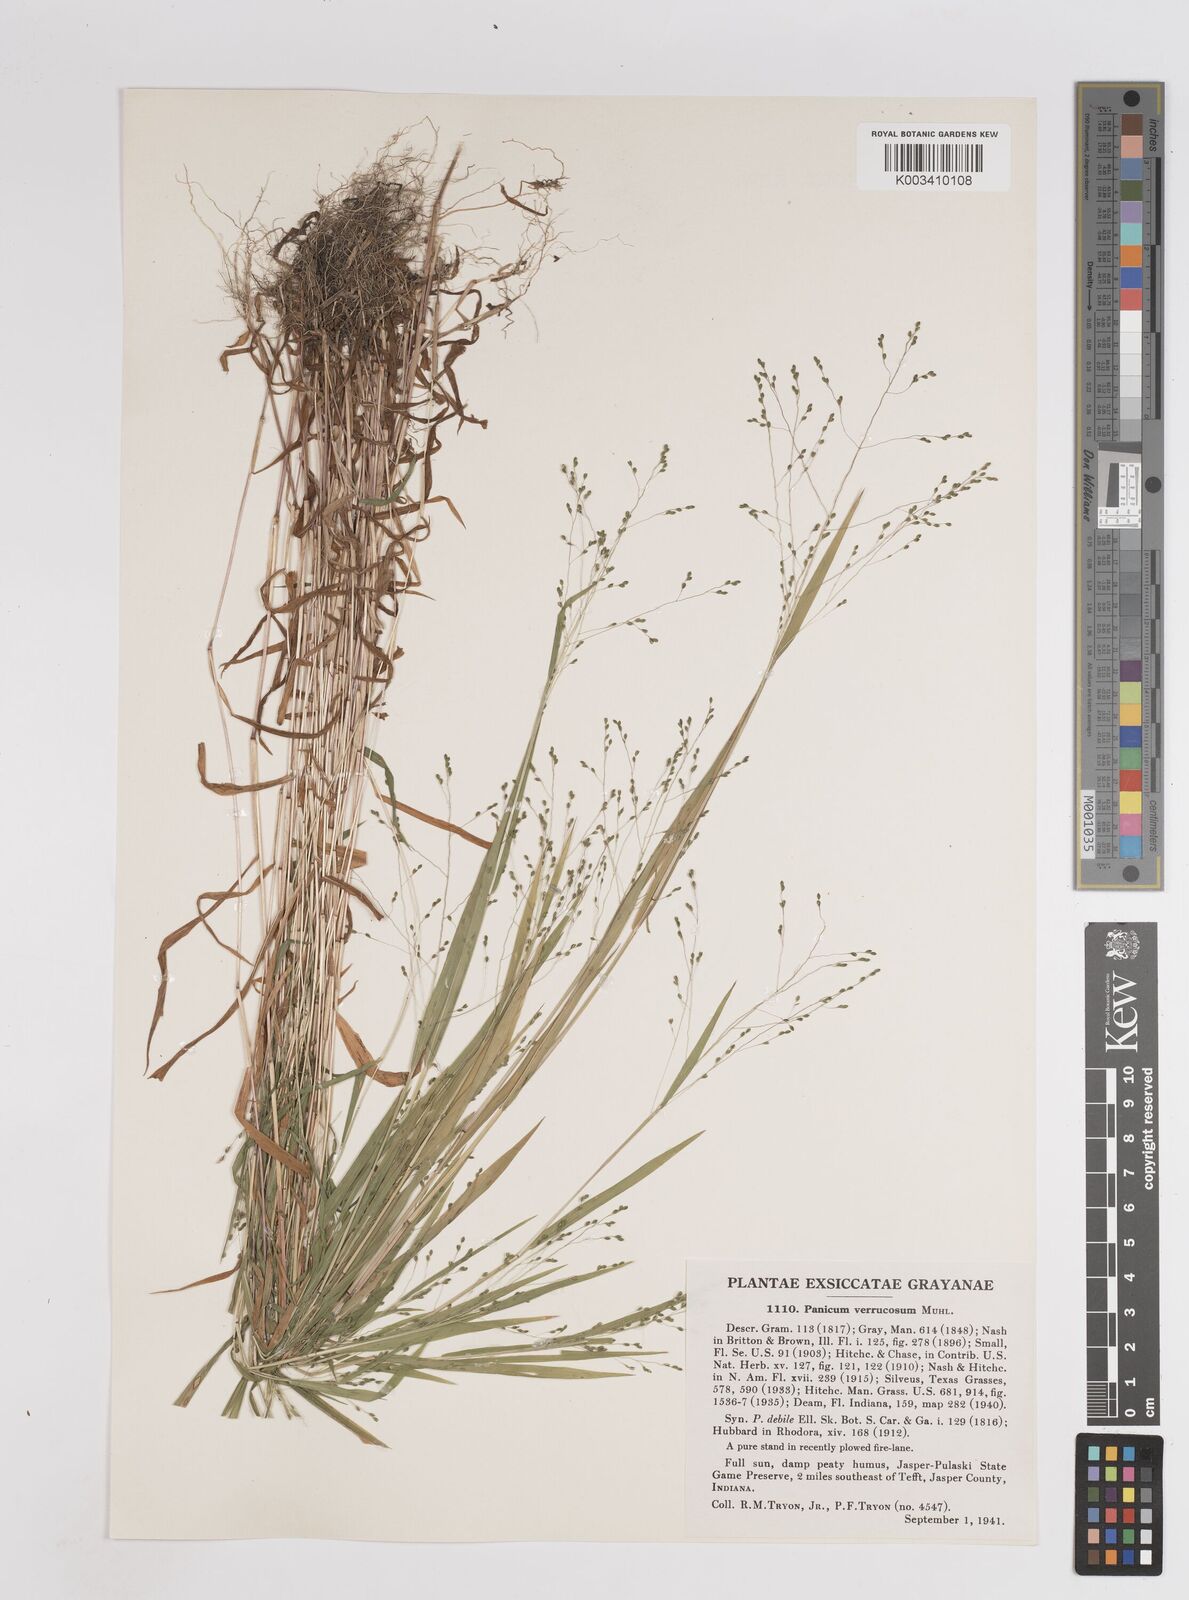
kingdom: Plantae
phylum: Tracheophyta
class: Liliopsida
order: Poales
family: Poaceae
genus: Kellochloa
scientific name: Kellochloa verrucosa
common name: Warty panic grass
